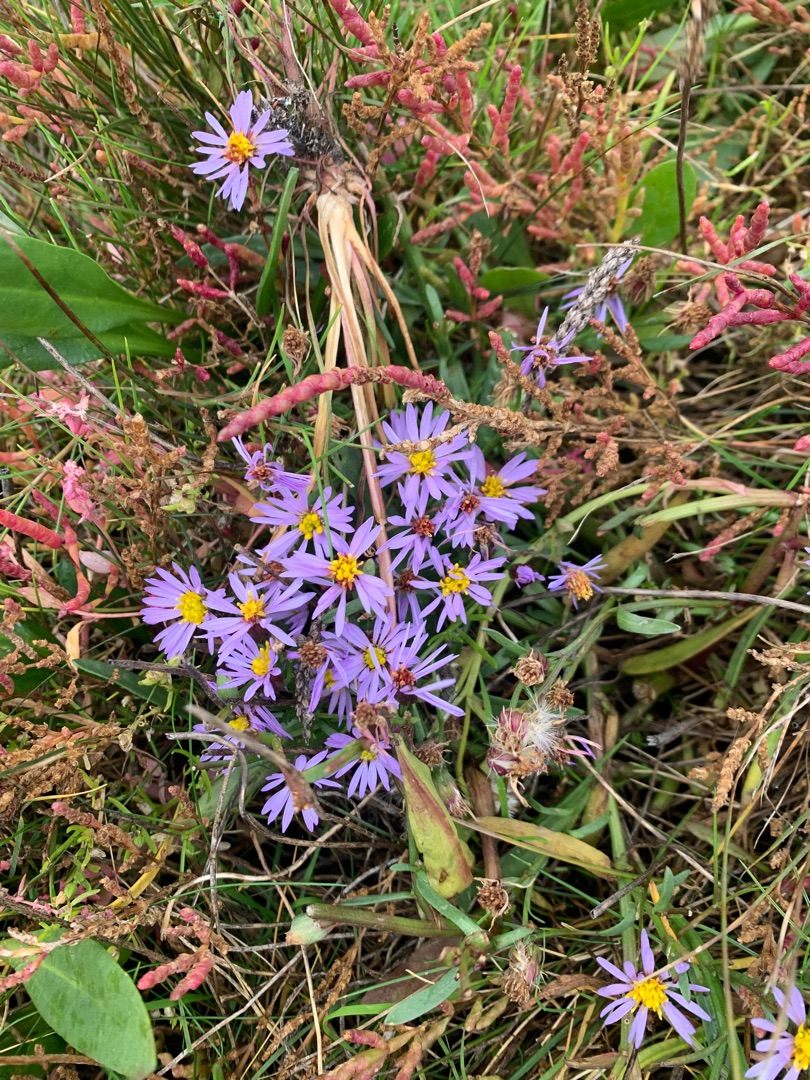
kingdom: Plantae
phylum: Tracheophyta
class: Magnoliopsida
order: Asterales
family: Asteraceae
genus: Tripolium
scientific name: Tripolium pannonicum
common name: Strandasters
